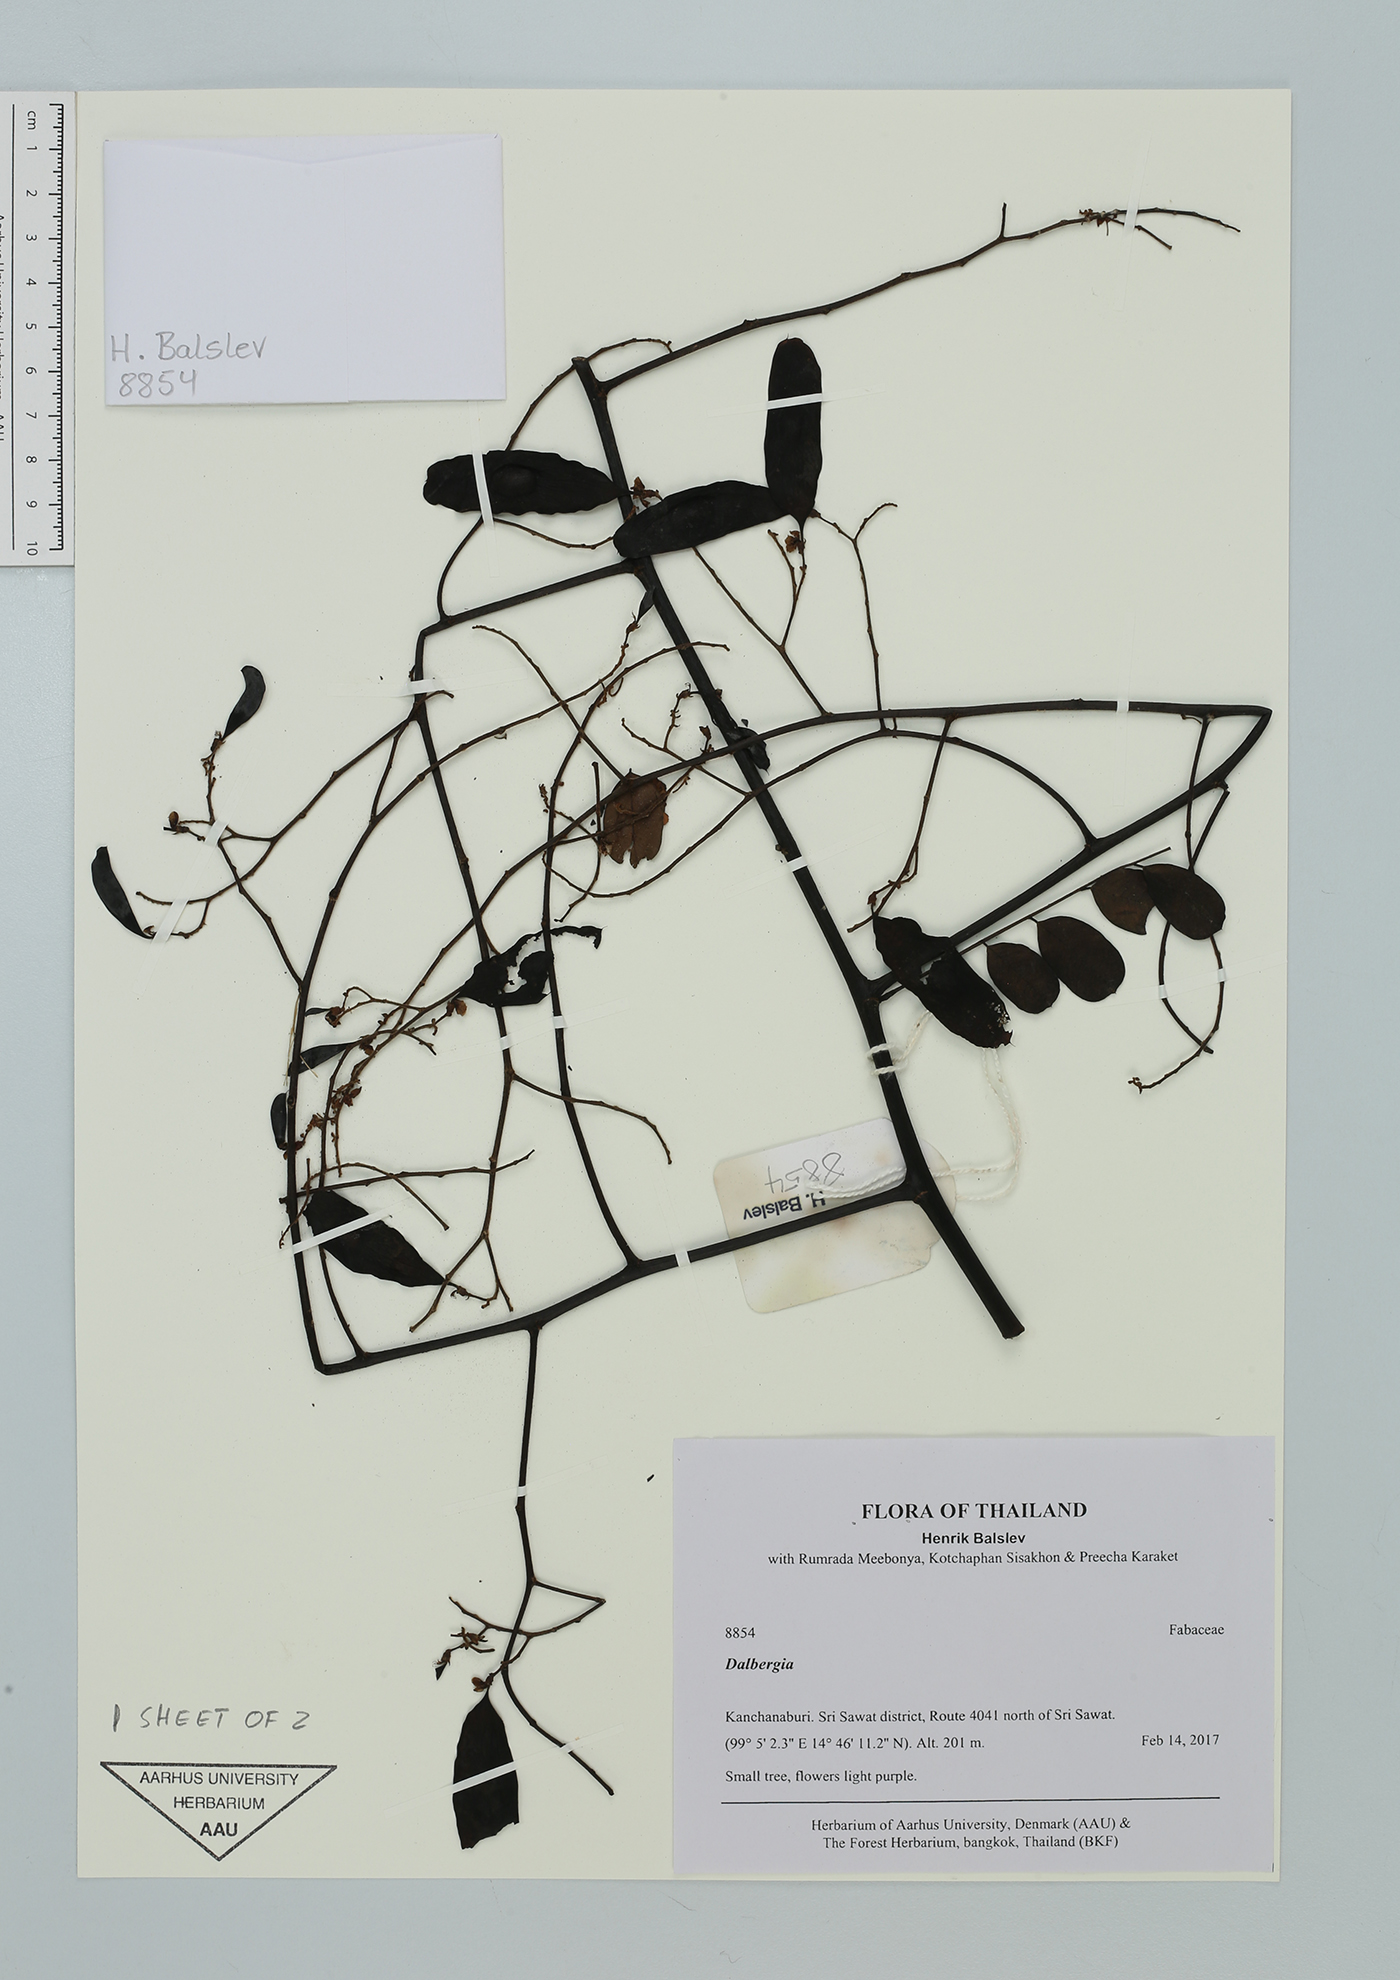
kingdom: Plantae
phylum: Tracheophyta
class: Magnoliopsida
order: Fabales
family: Fabaceae
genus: Dalbergia
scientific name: Dalbergia
